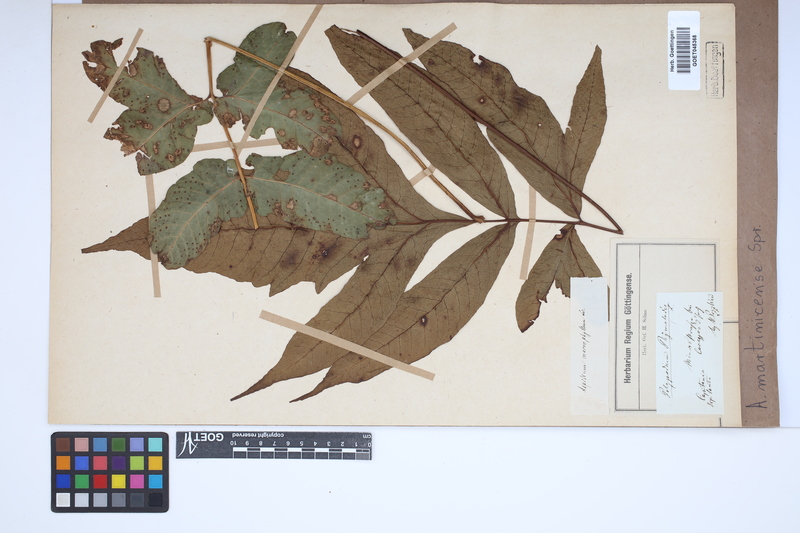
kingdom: Plantae
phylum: Tracheophyta
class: Polypodiopsida
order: Polypodiales
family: Tectariaceae
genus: Tectaria
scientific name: Tectaria incisa
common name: Incised halberd fern
